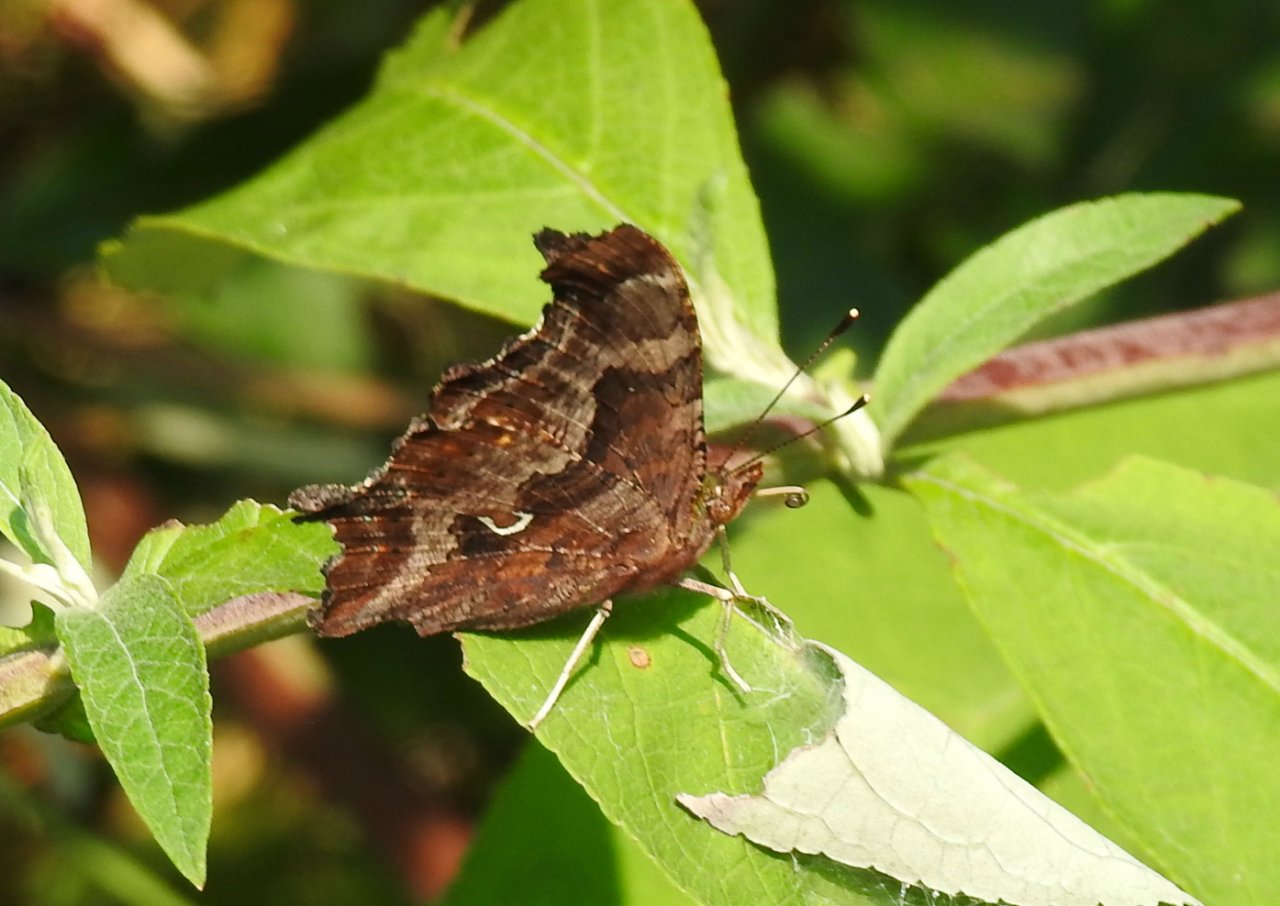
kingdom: Animalia
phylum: Arthropoda
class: Insecta
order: Lepidoptera
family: Nymphalidae
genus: Polygonia
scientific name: Polygonia comma
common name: Eastern Comma
